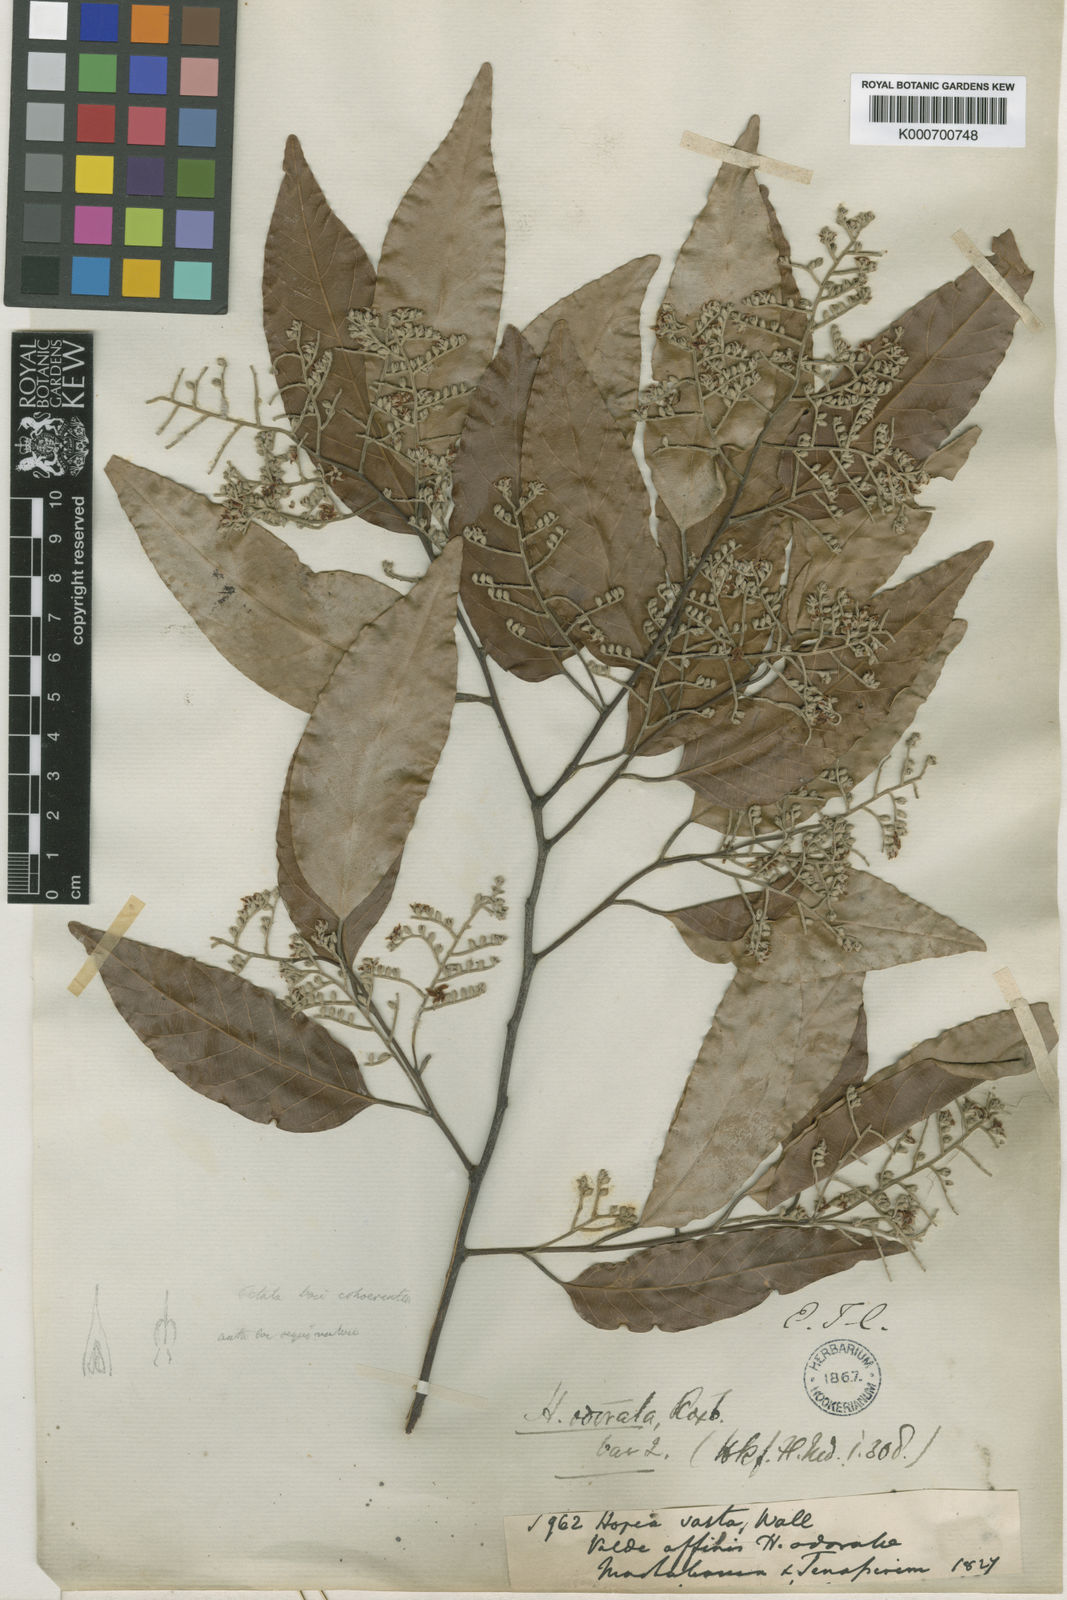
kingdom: Plantae
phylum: Tracheophyta
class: Magnoliopsida
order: Malvales
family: Dipterocarpaceae
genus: Hopea
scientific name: Hopea odorata
